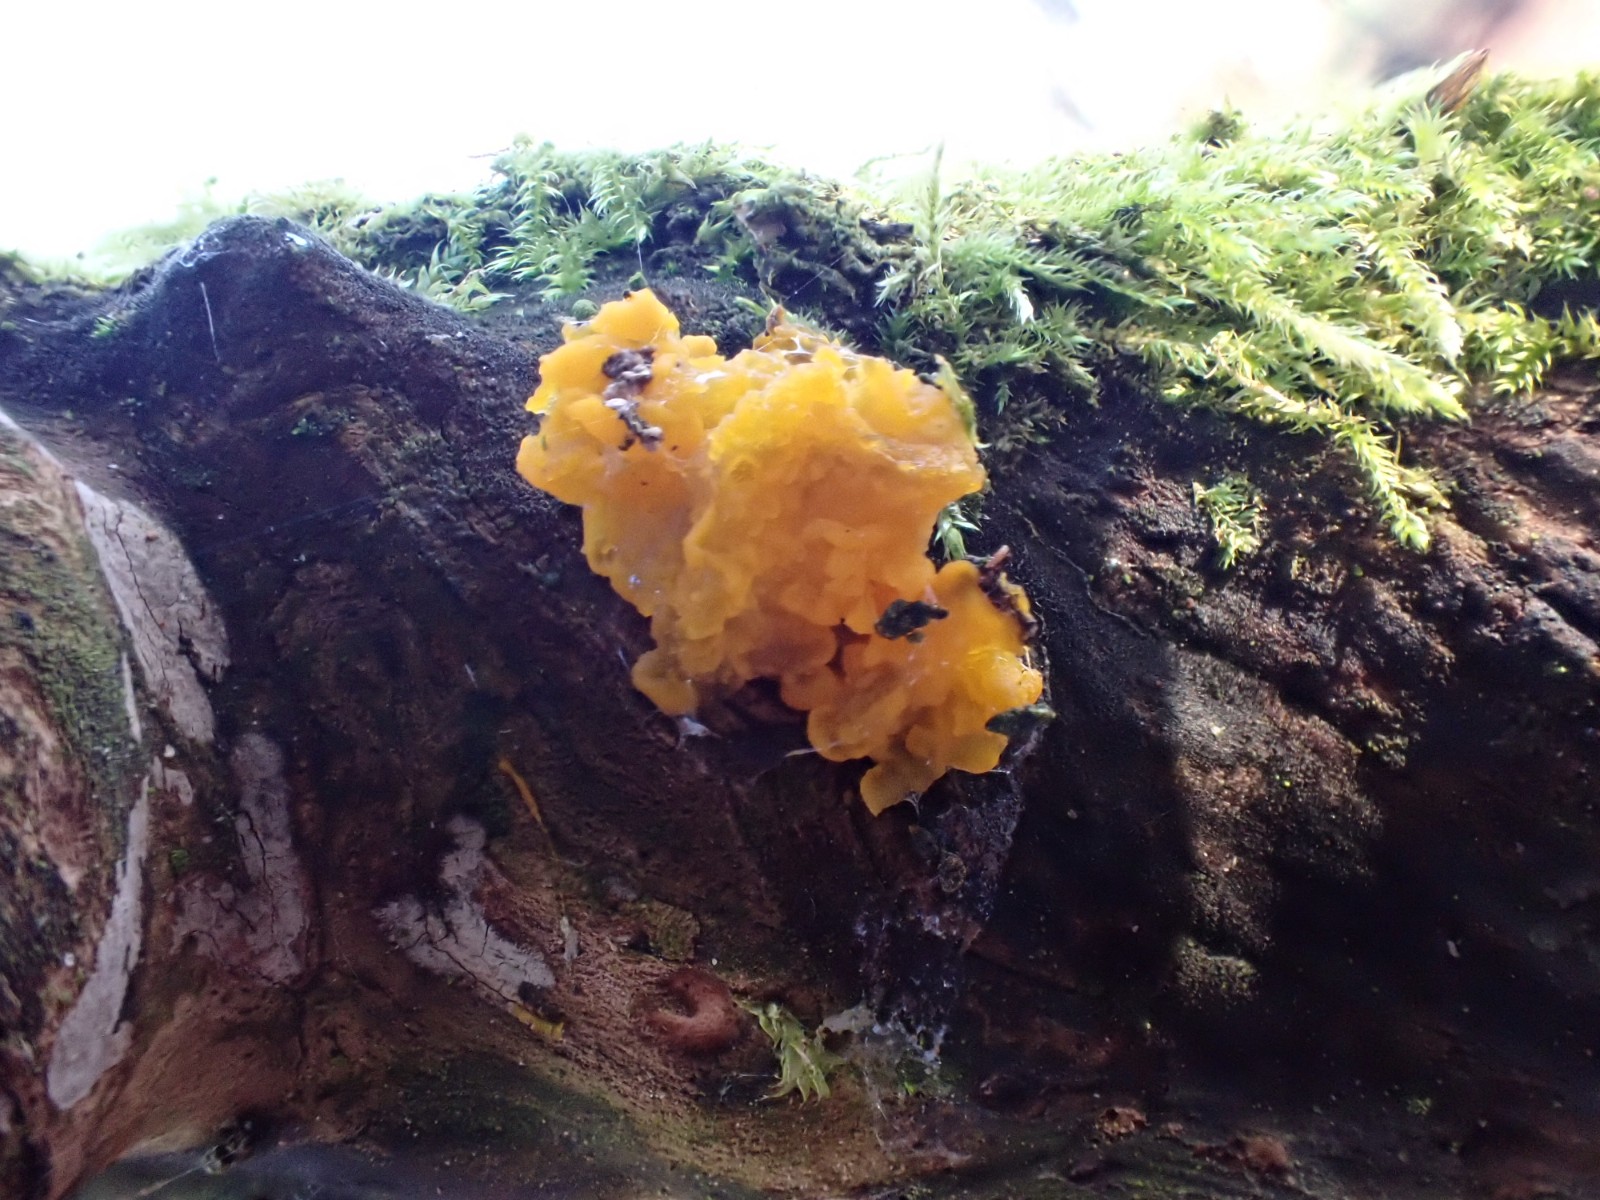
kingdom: Fungi
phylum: Basidiomycota
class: Tremellomycetes
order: Tremellales
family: Tremellaceae
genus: Tremella
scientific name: Tremella mesenterica
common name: gul bævresvamp
